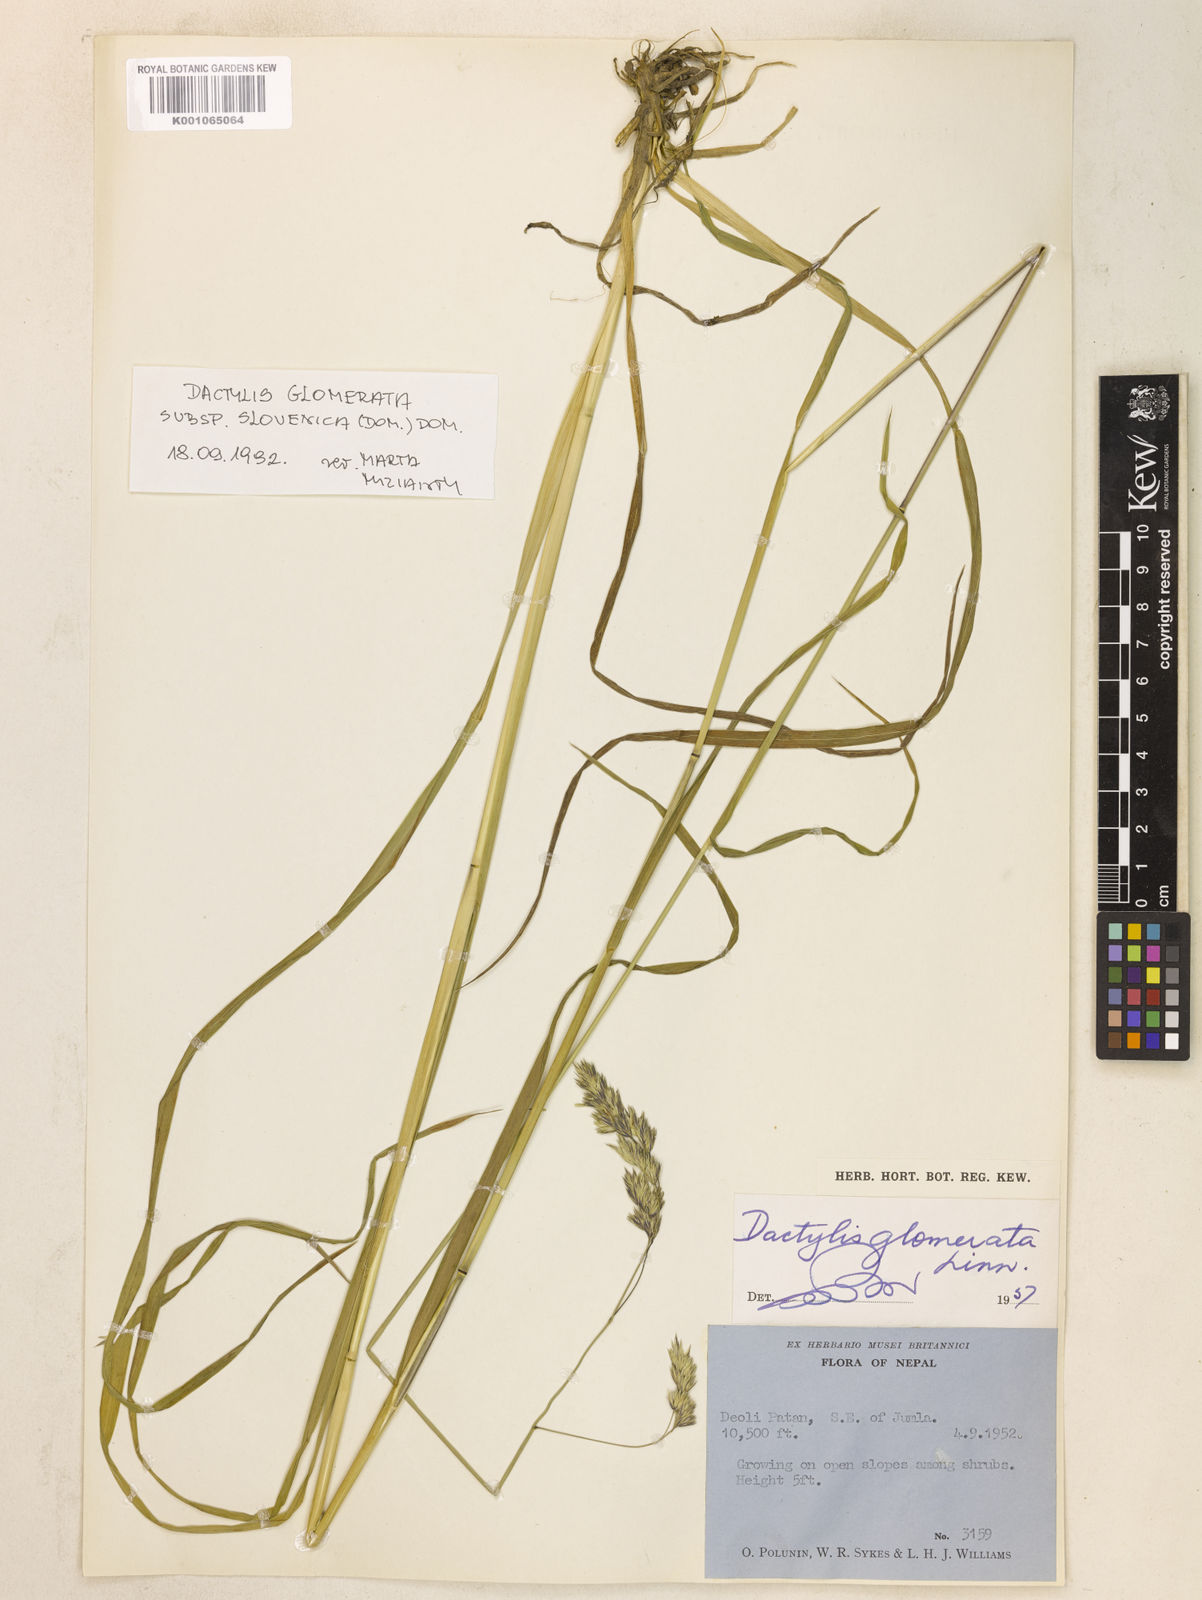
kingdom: Plantae
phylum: Tracheophyta
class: Liliopsida
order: Poales
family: Poaceae
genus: Dactylis
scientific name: Dactylis glomerata
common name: Orchardgrass
